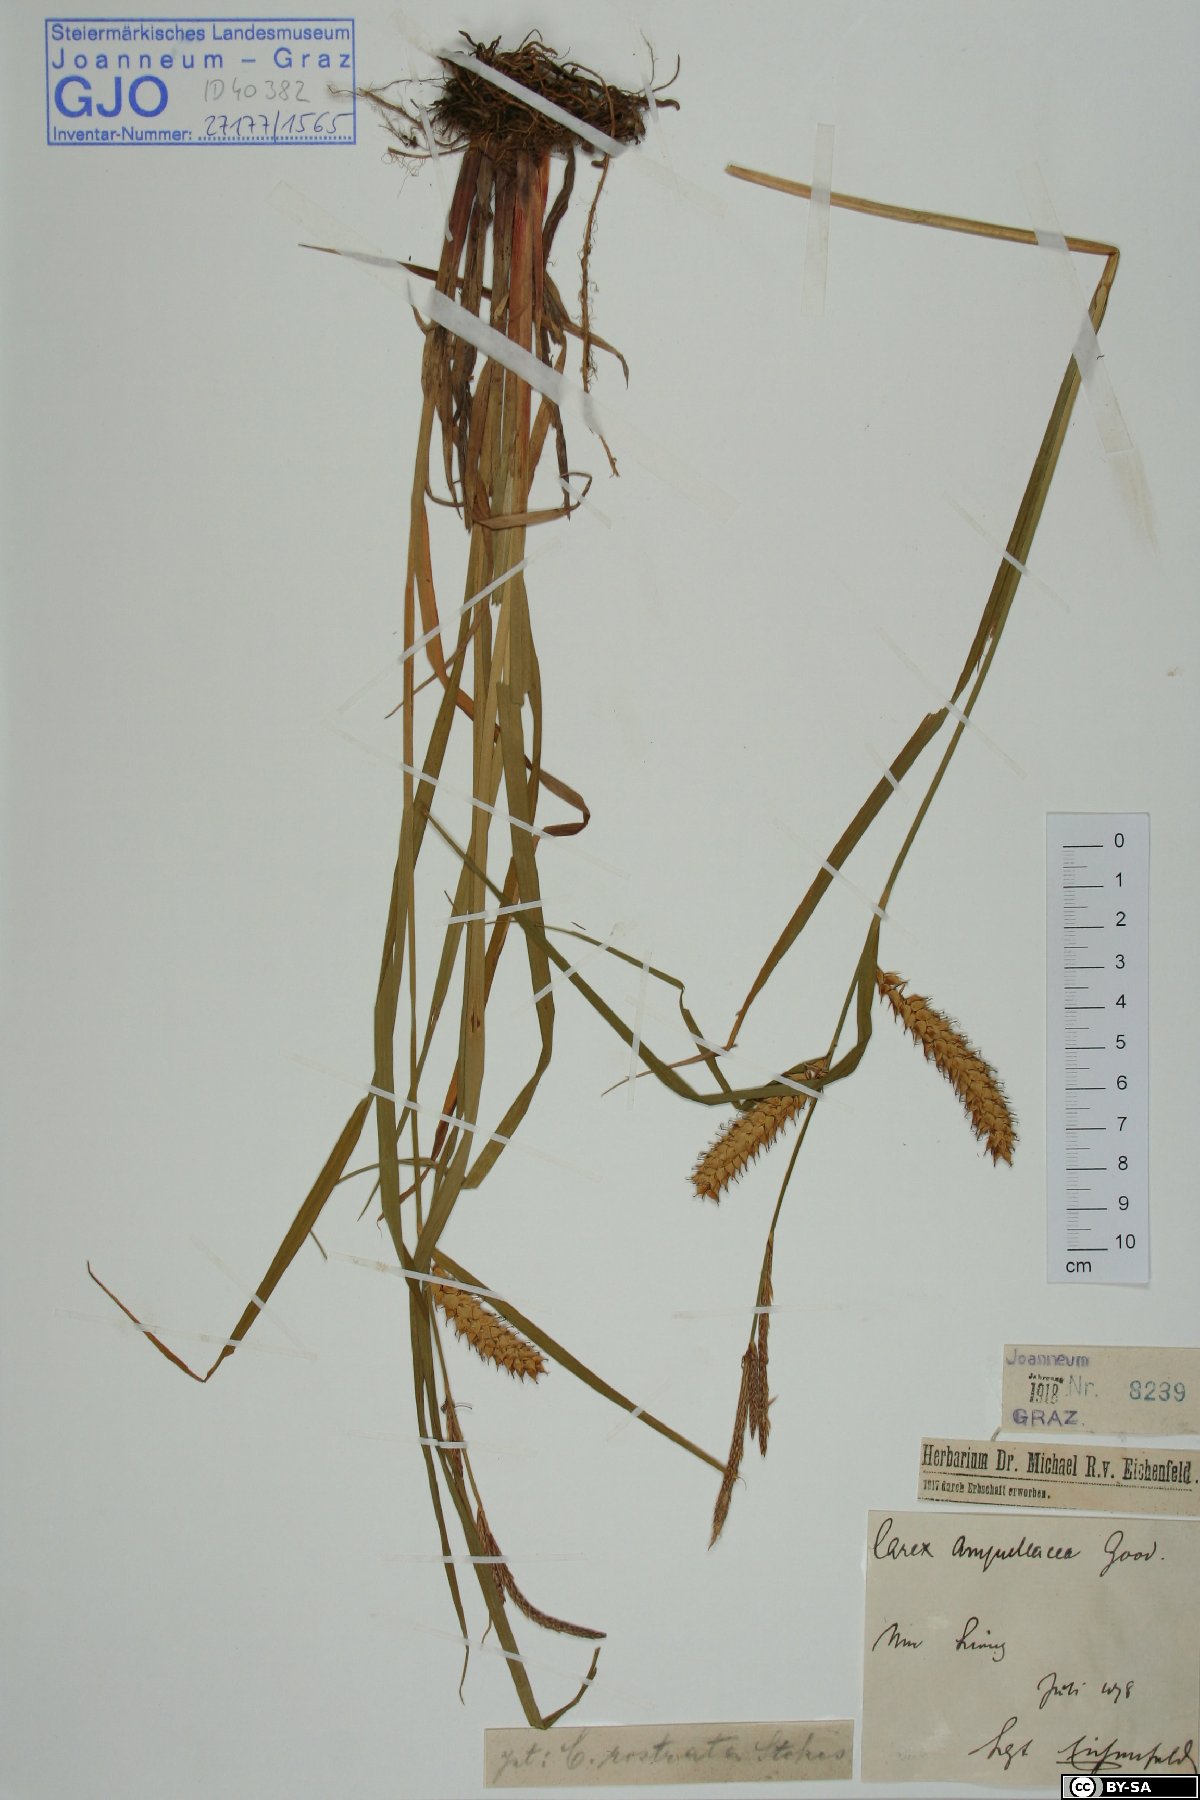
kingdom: Plantae
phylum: Tracheophyta
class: Liliopsida
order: Poales
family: Cyperaceae
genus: Carex
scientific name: Carex rostrata
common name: Bottle sedge
